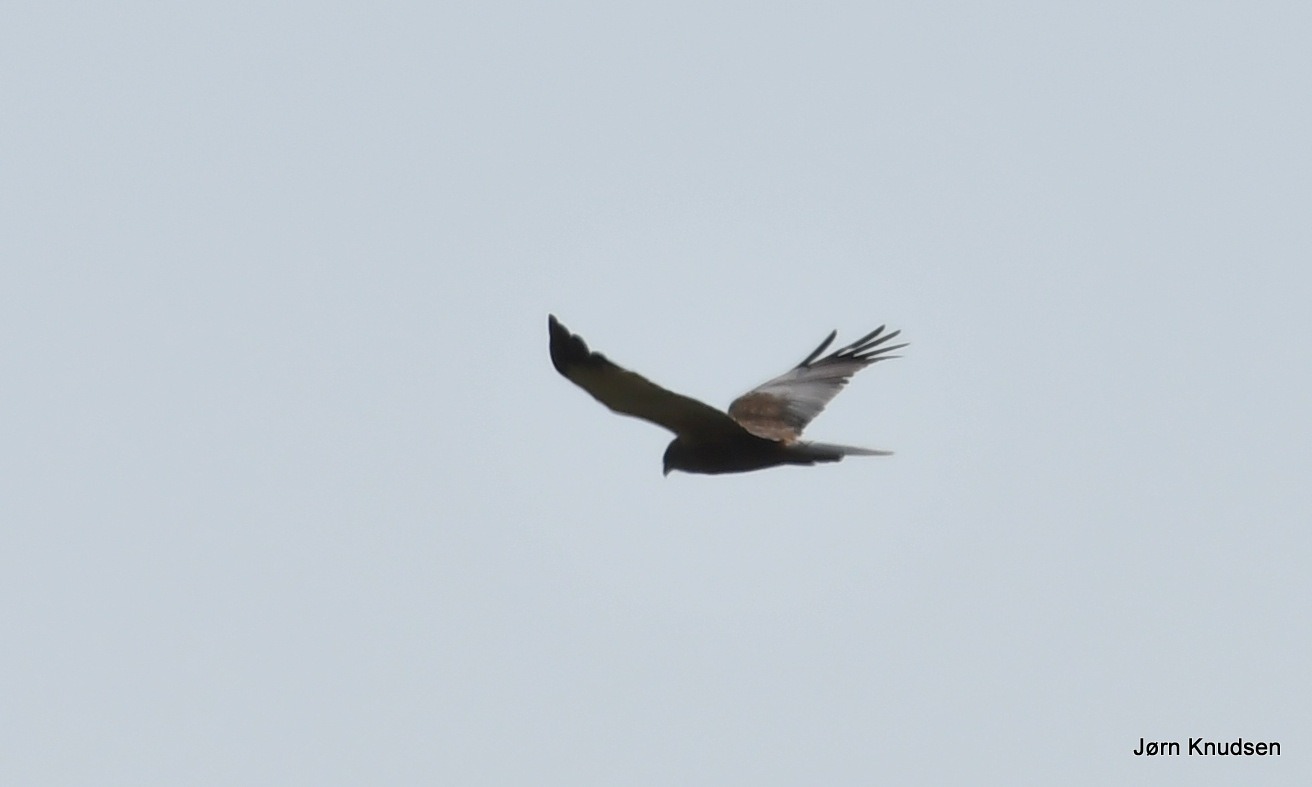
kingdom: Animalia
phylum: Chordata
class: Aves
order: Accipitriformes
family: Accipitridae
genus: Circus
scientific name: Circus aeruginosus
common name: Rørhøg
